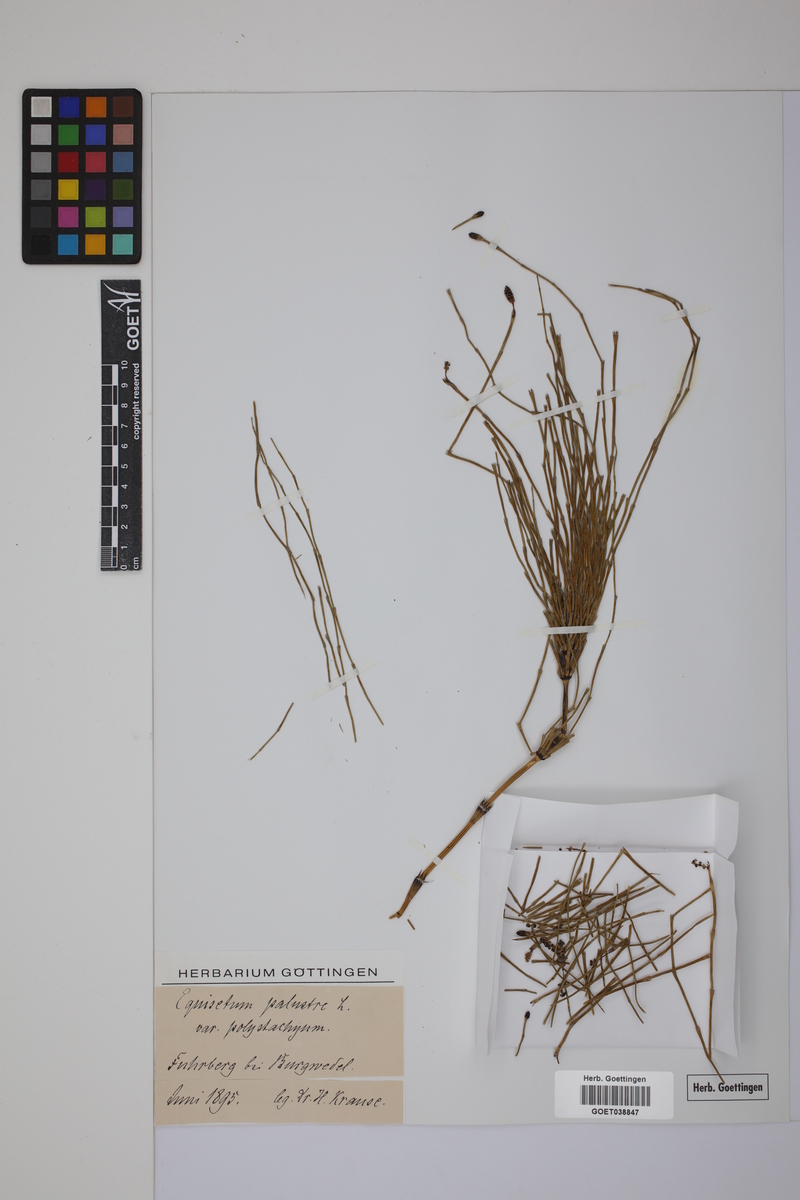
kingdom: Plantae
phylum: Tracheophyta
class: Polypodiopsida
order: Equisetales
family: Equisetaceae
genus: Equisetum
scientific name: Equisetum palustre
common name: Marsh horsetail
